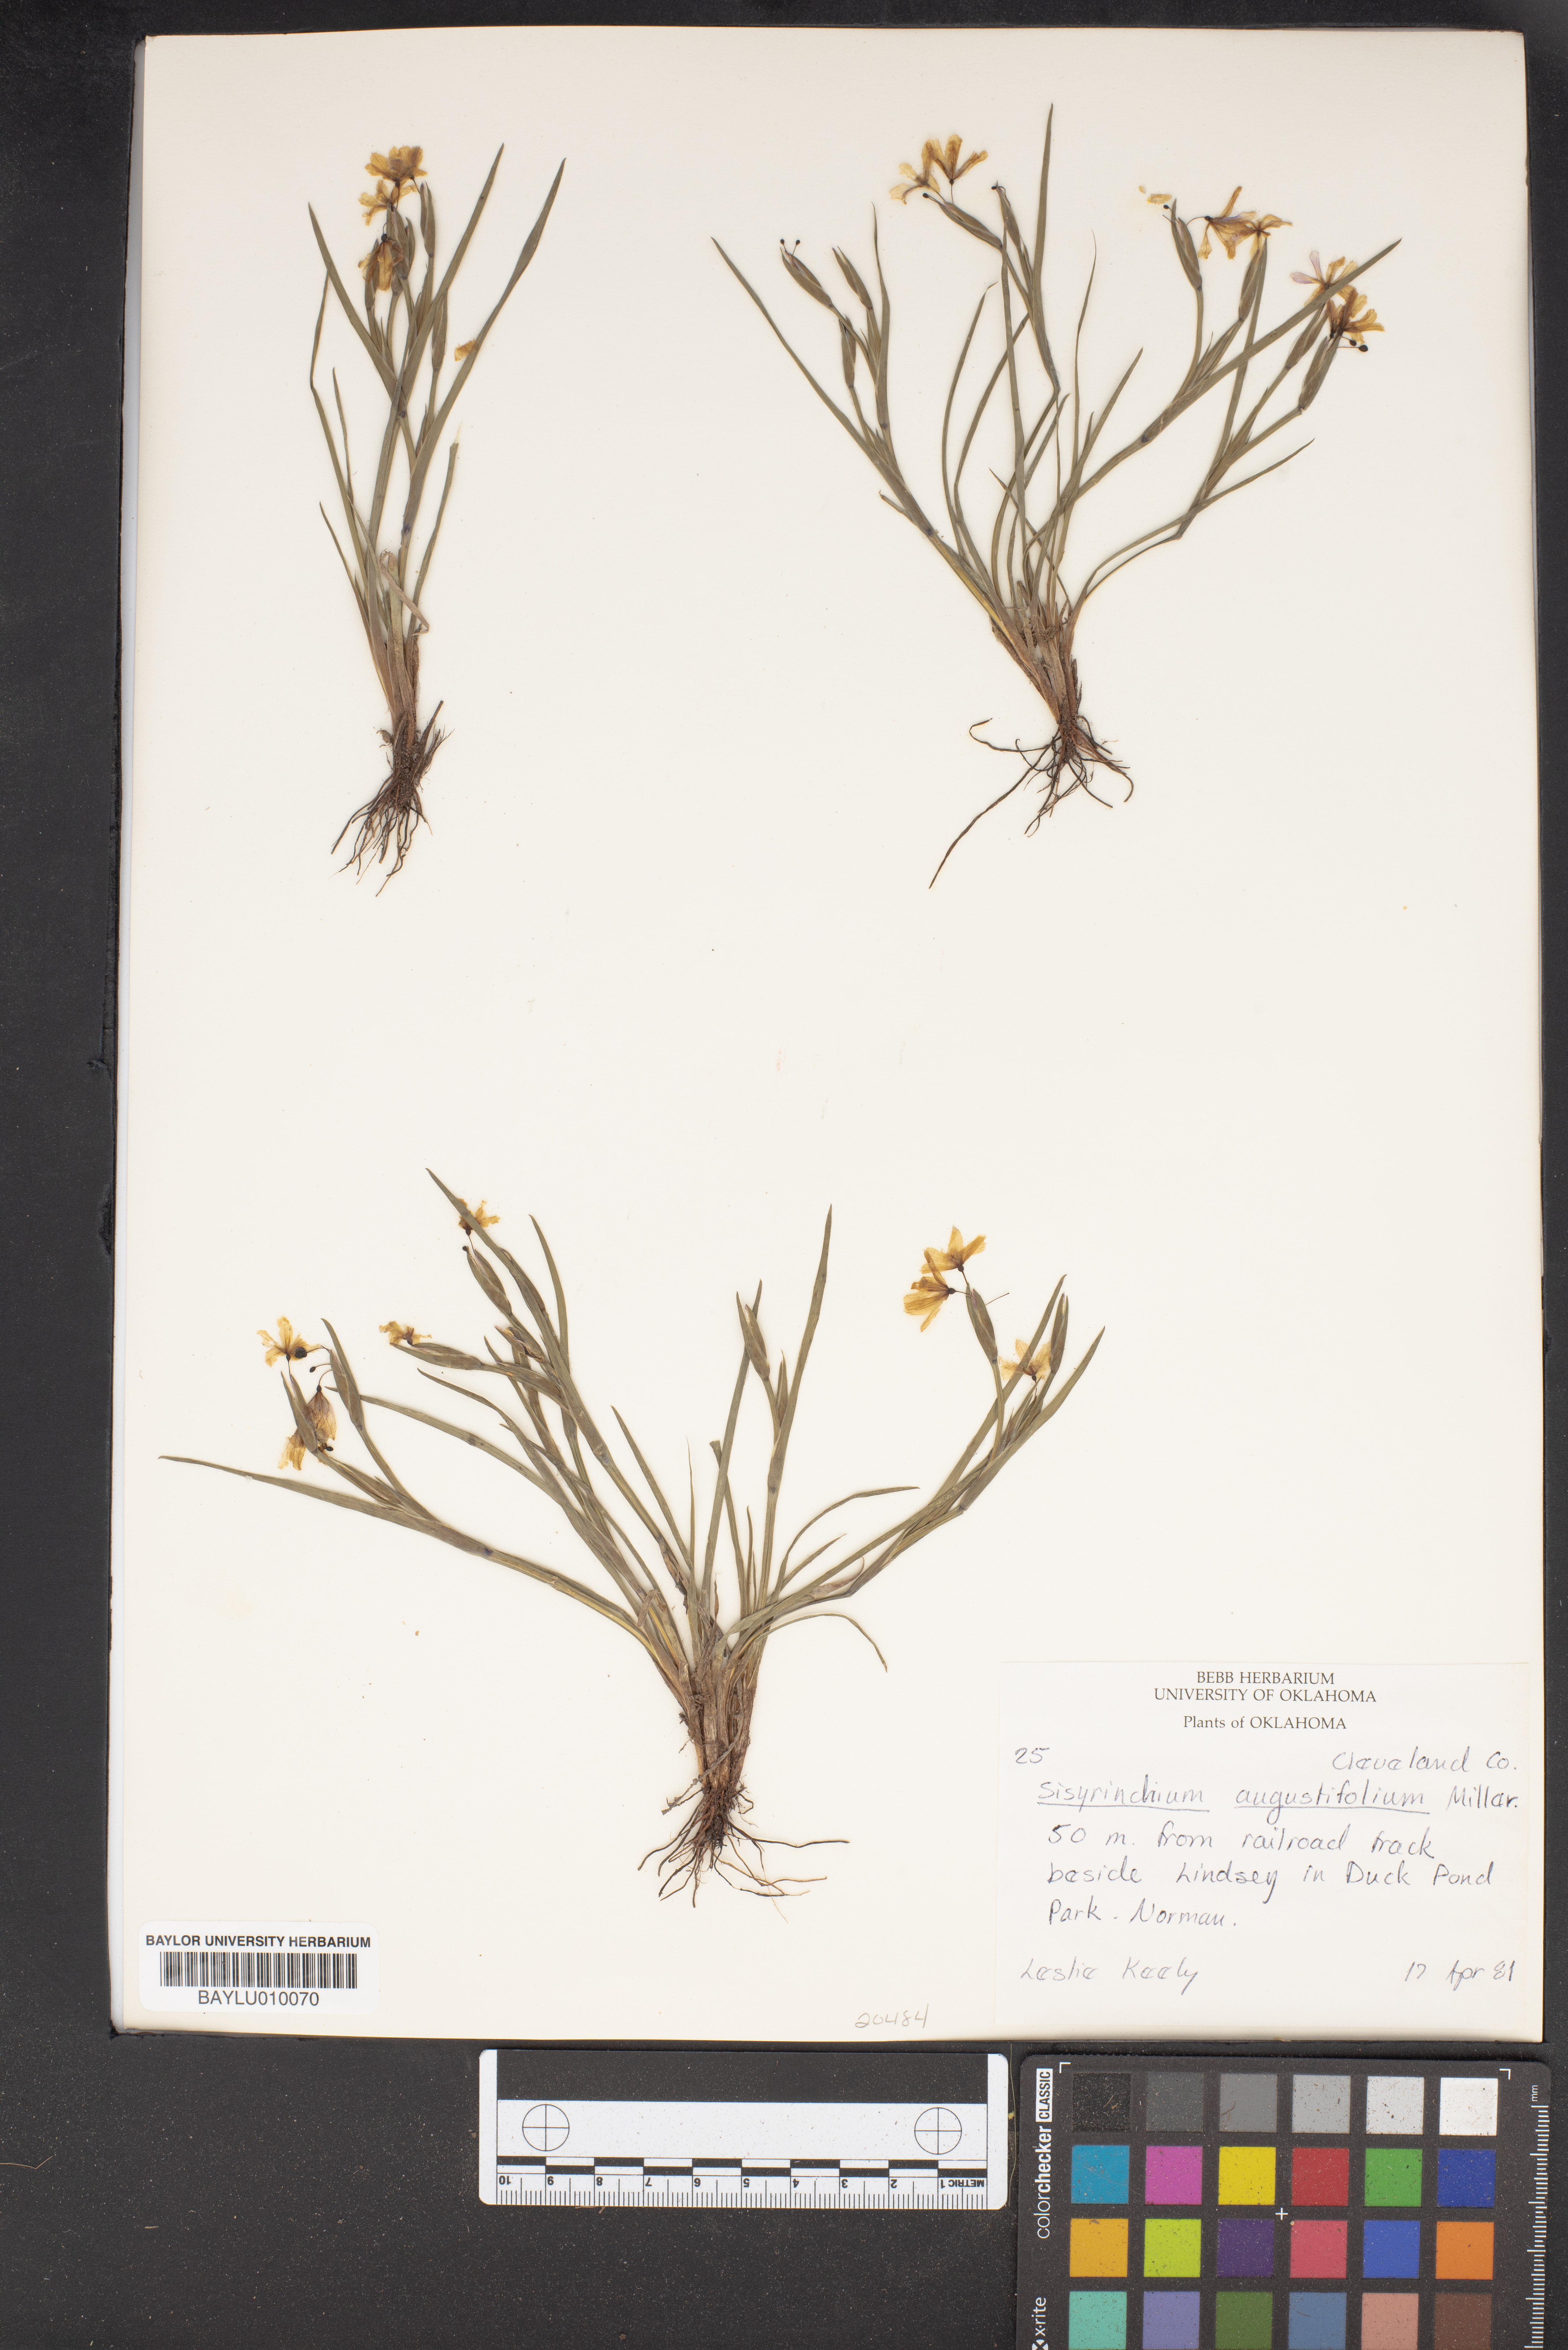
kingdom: Plantae
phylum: Tracheophyta
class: Liliopsida
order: Asparagales
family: Iridaceae
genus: Sisyrinchium
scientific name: Sisyrinchium angustifolium
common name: Narrow-leaf blue-eyed-grass
